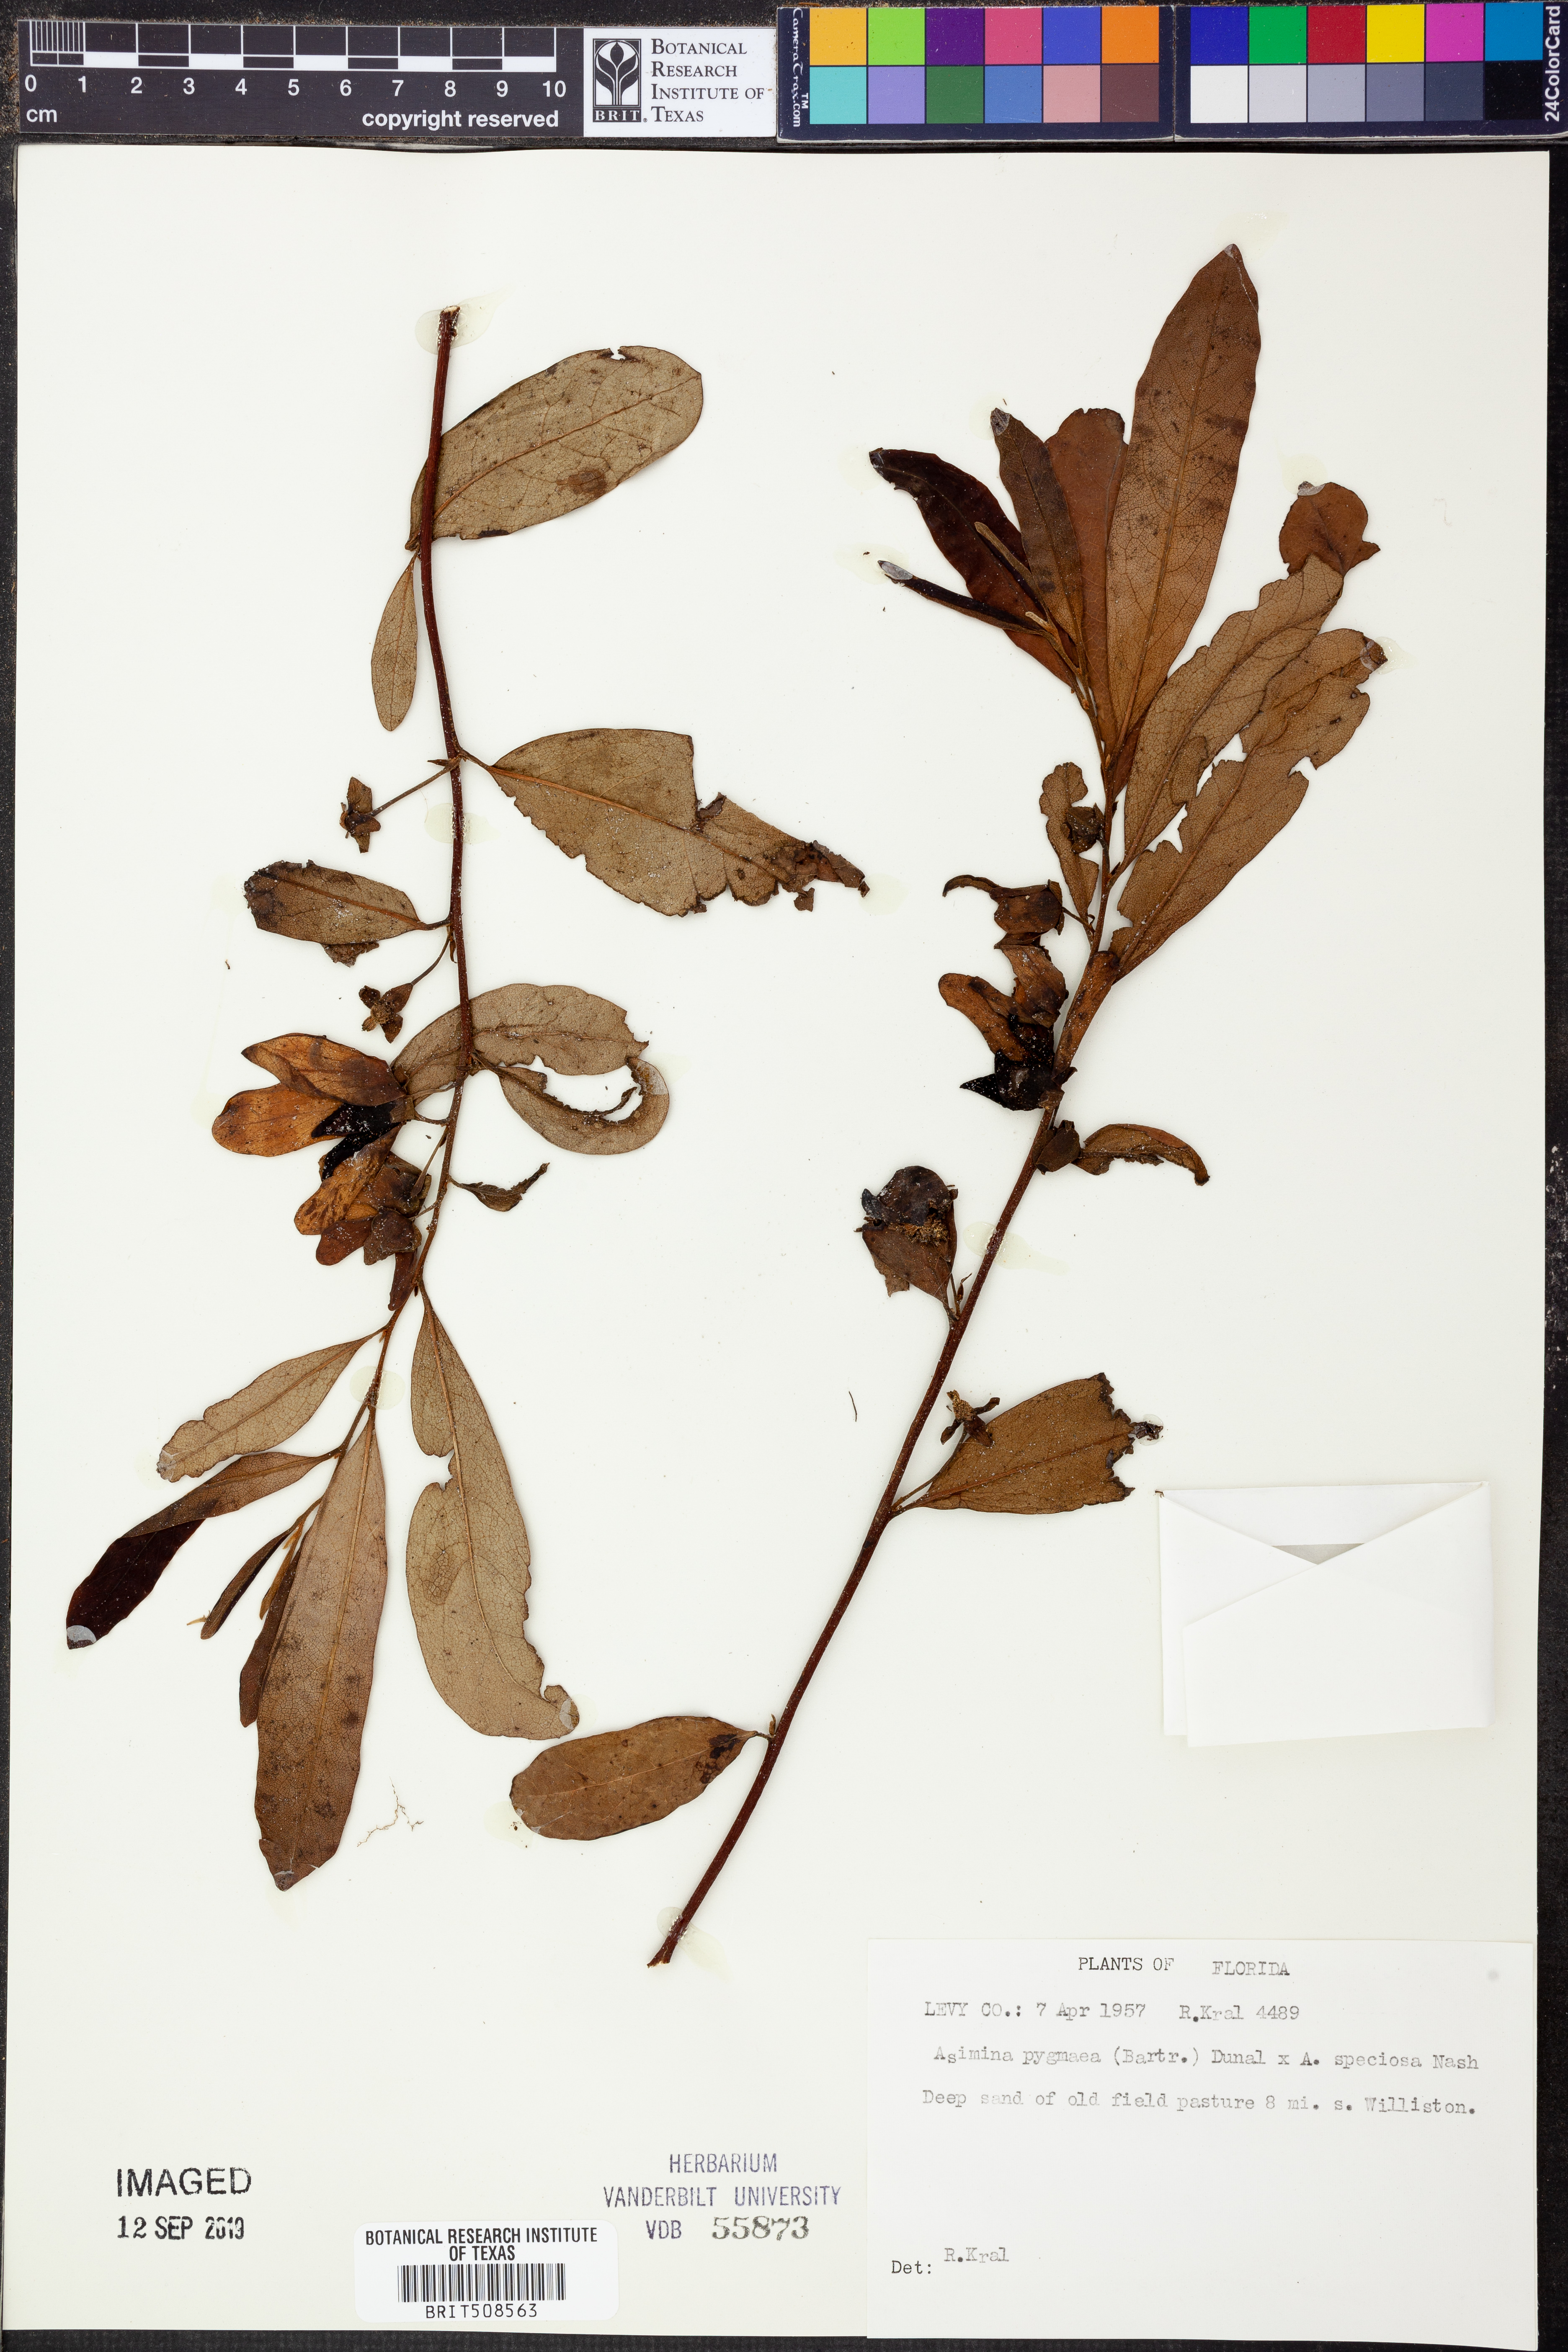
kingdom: Plantae
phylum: Tracheophyta
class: Magnoliopsida
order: Magnoliales
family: Annonaceae
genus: Asimina
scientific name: Asimina pygmaea
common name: Dwarf pawpaw
